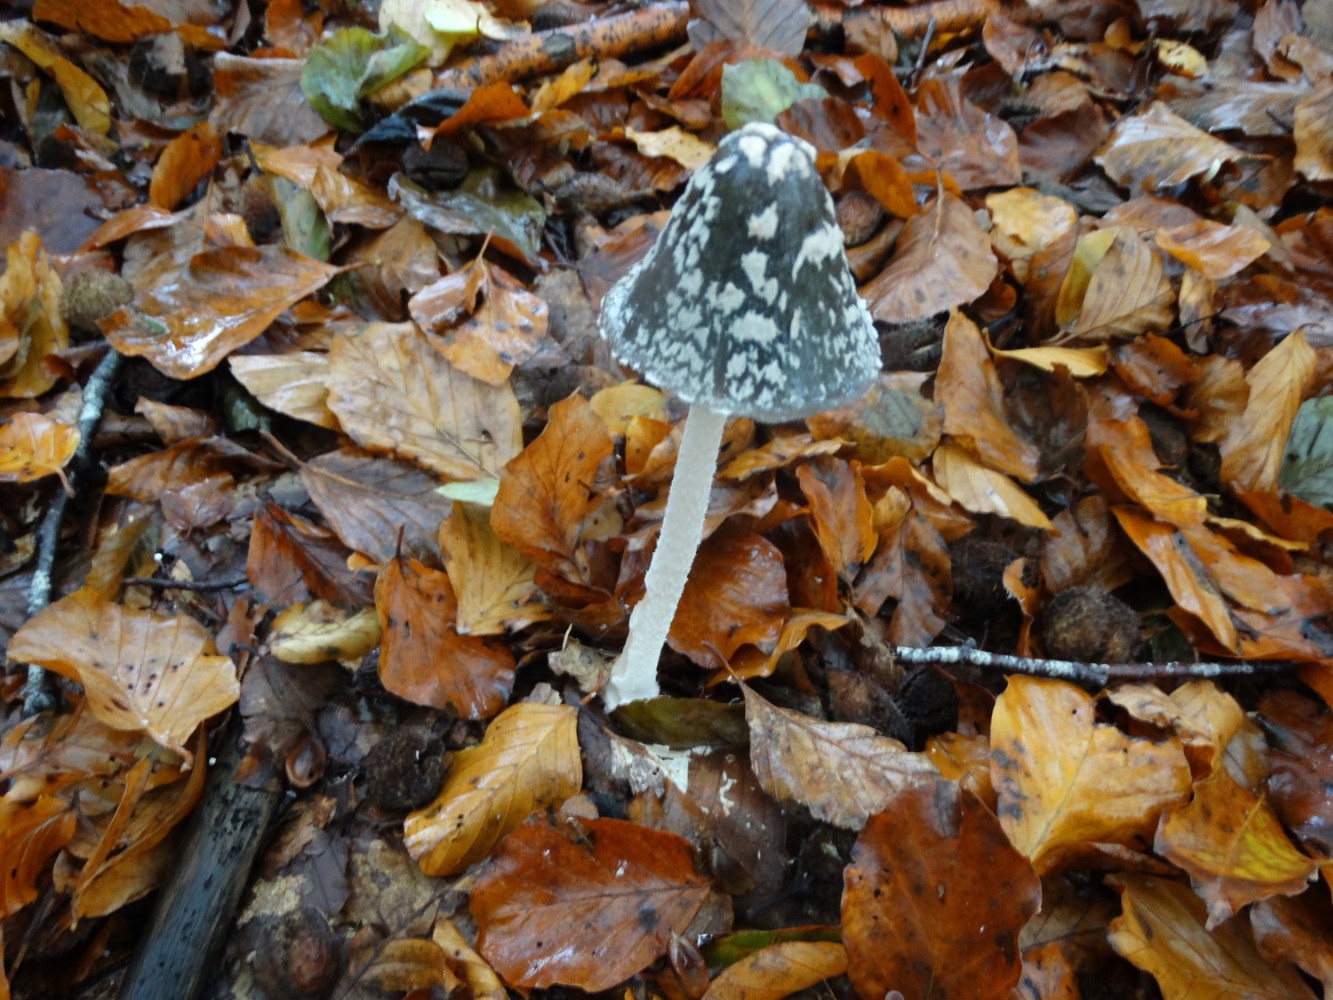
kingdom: Fungi
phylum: Basidiomycota
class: Agaricomycetes
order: Agaricales
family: Psathyrellaceae
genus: Coprinopsis
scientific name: Coprinopsis picacea
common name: skade-blækhat
